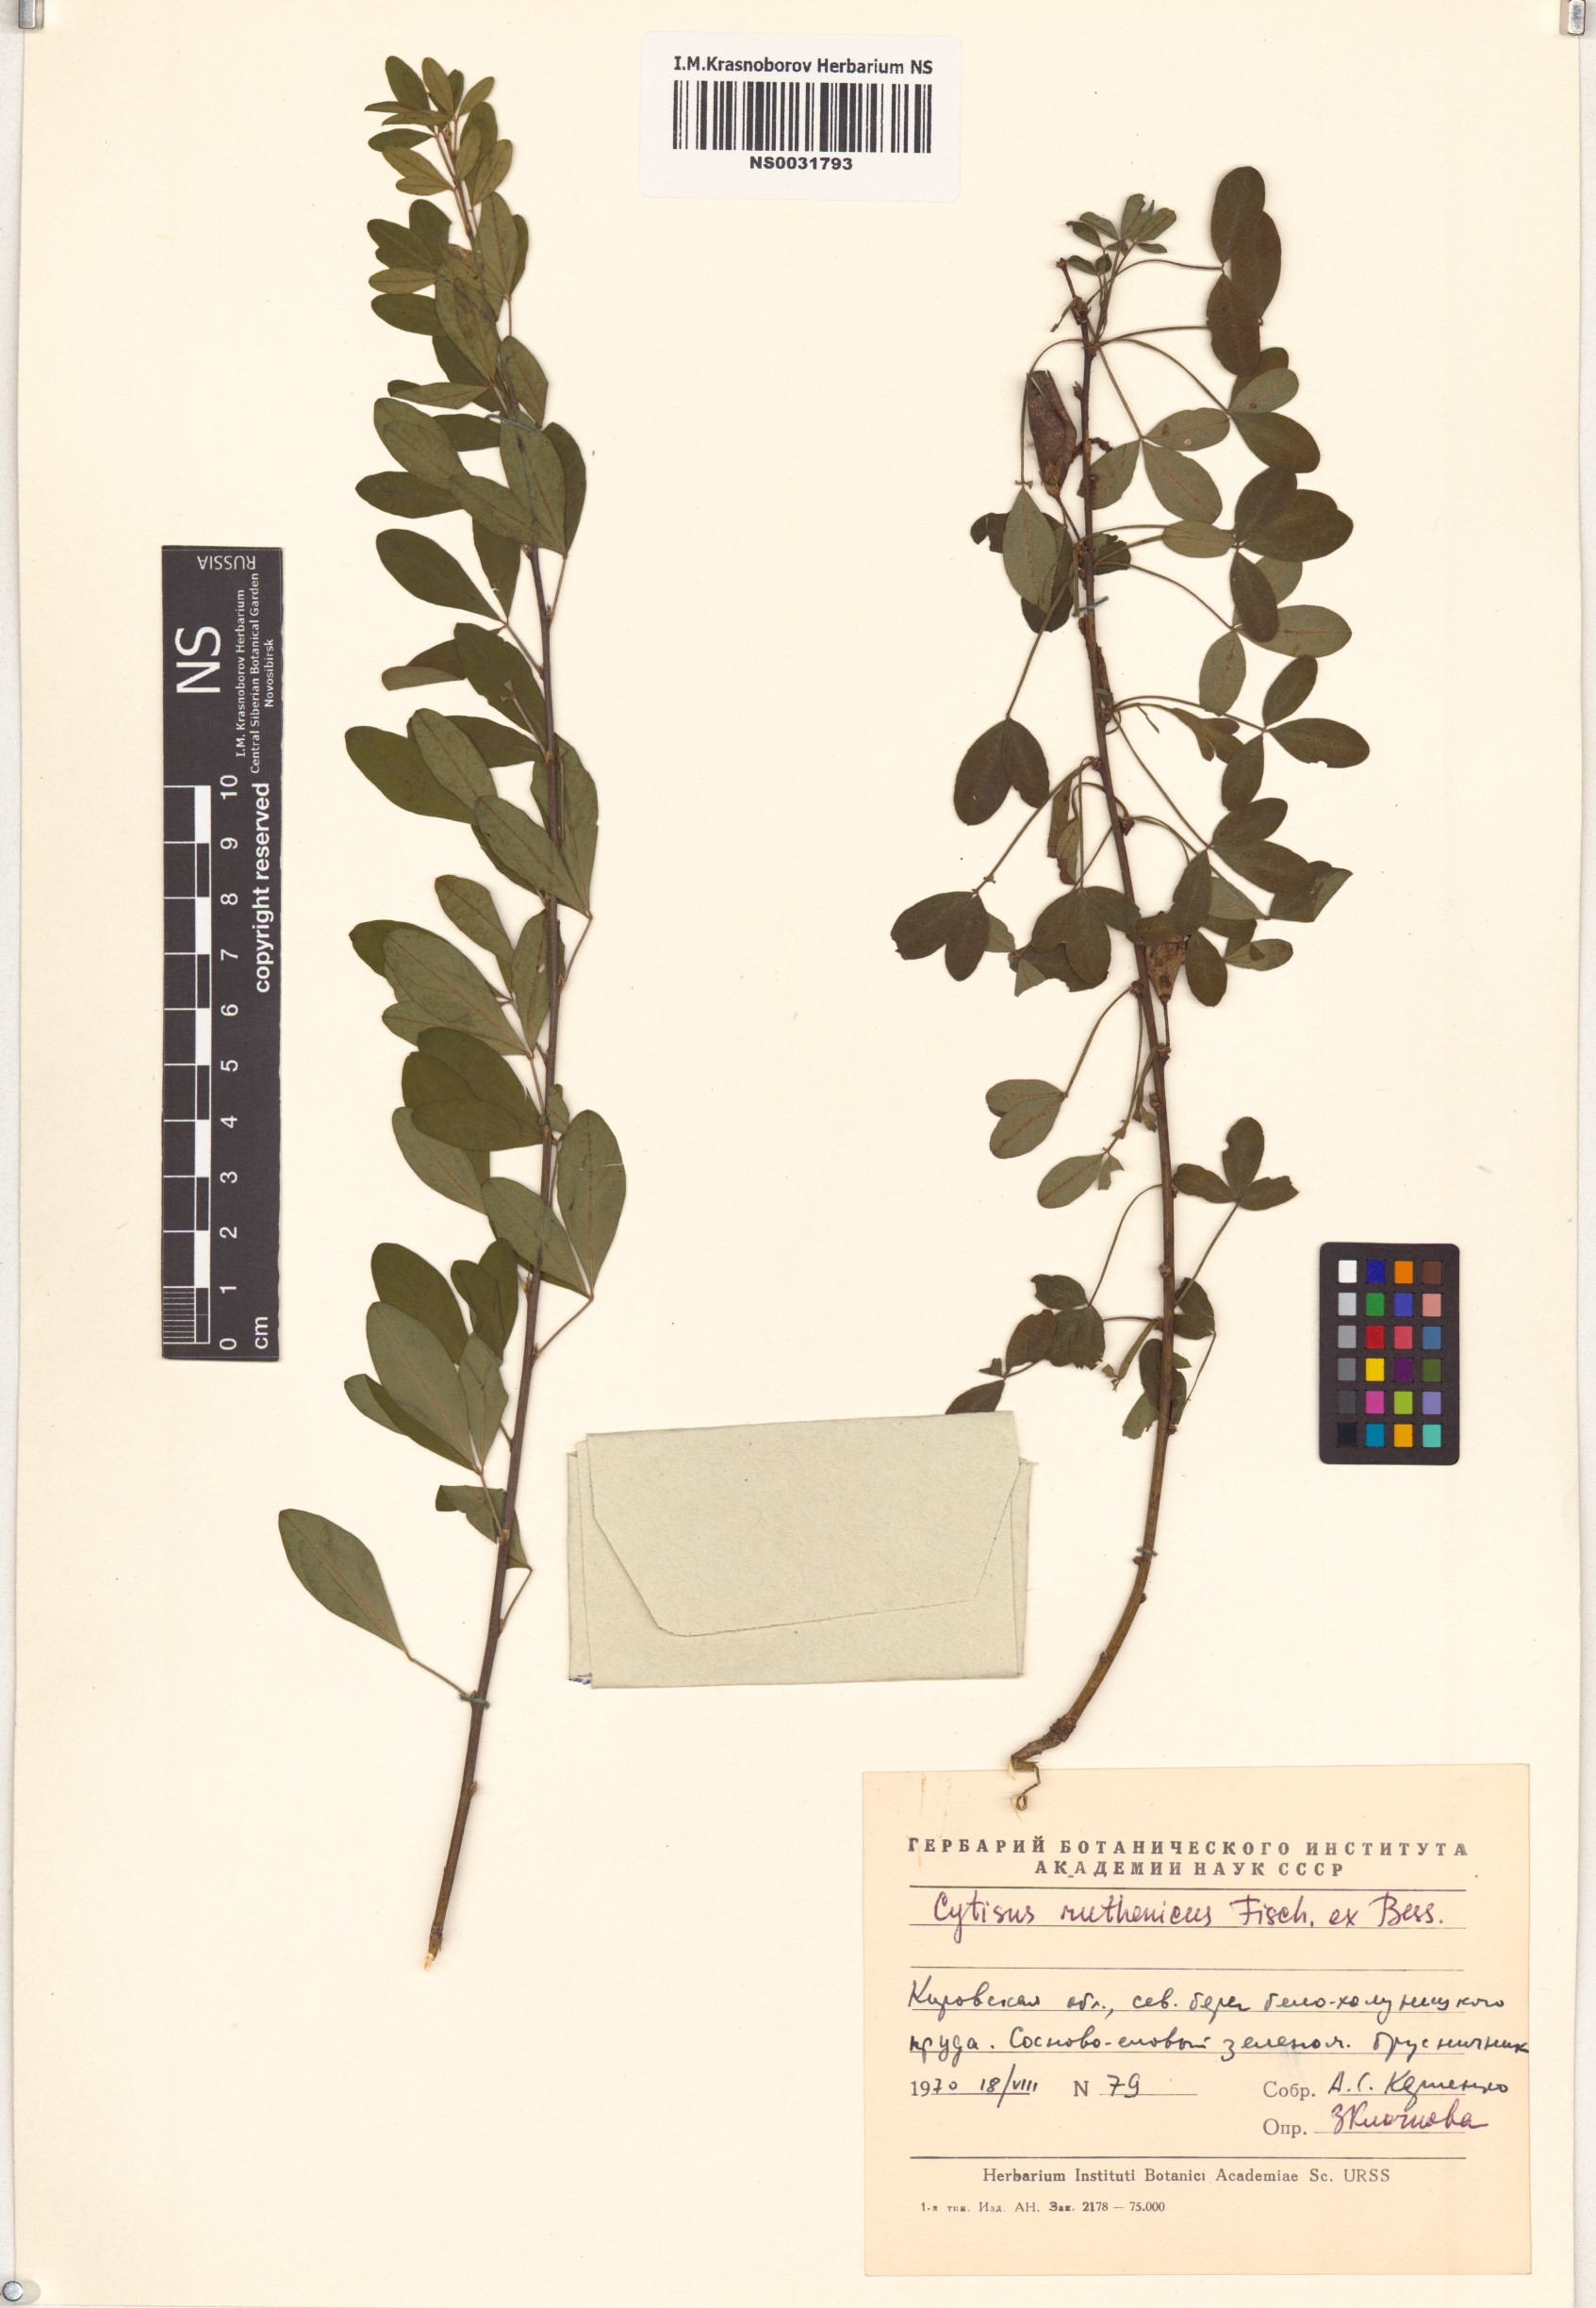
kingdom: Plantae
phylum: Tracheophyta
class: Magnoliopsida
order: Fabales
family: Fabaceae
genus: Chamaecytisus
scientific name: Chamaecytisus ruthenicus
